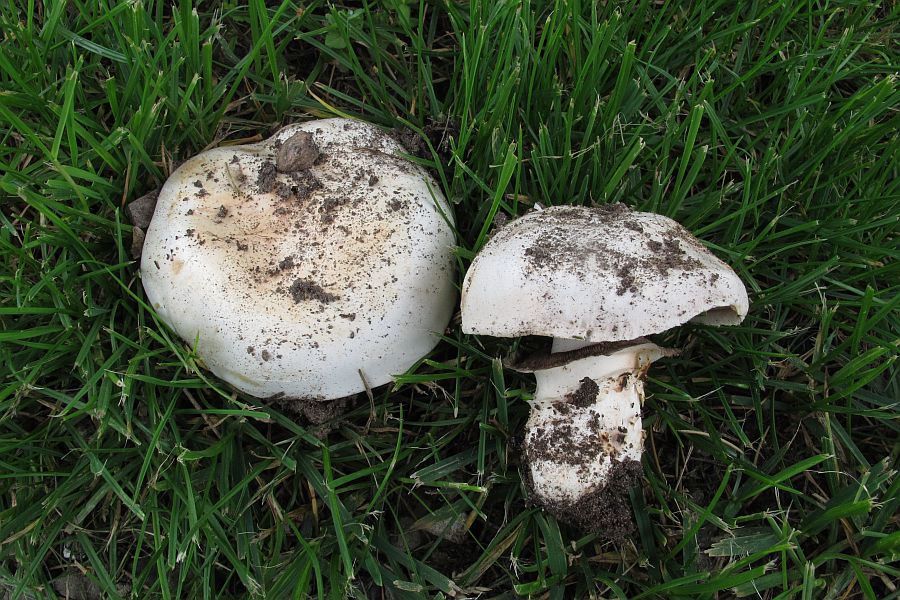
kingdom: Fungi
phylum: Basidiomycota
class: Agaricomycetes
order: Agaricales
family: Agaricaceae
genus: Agaricus
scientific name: Agaricus bitorquis
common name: vej-champignon
